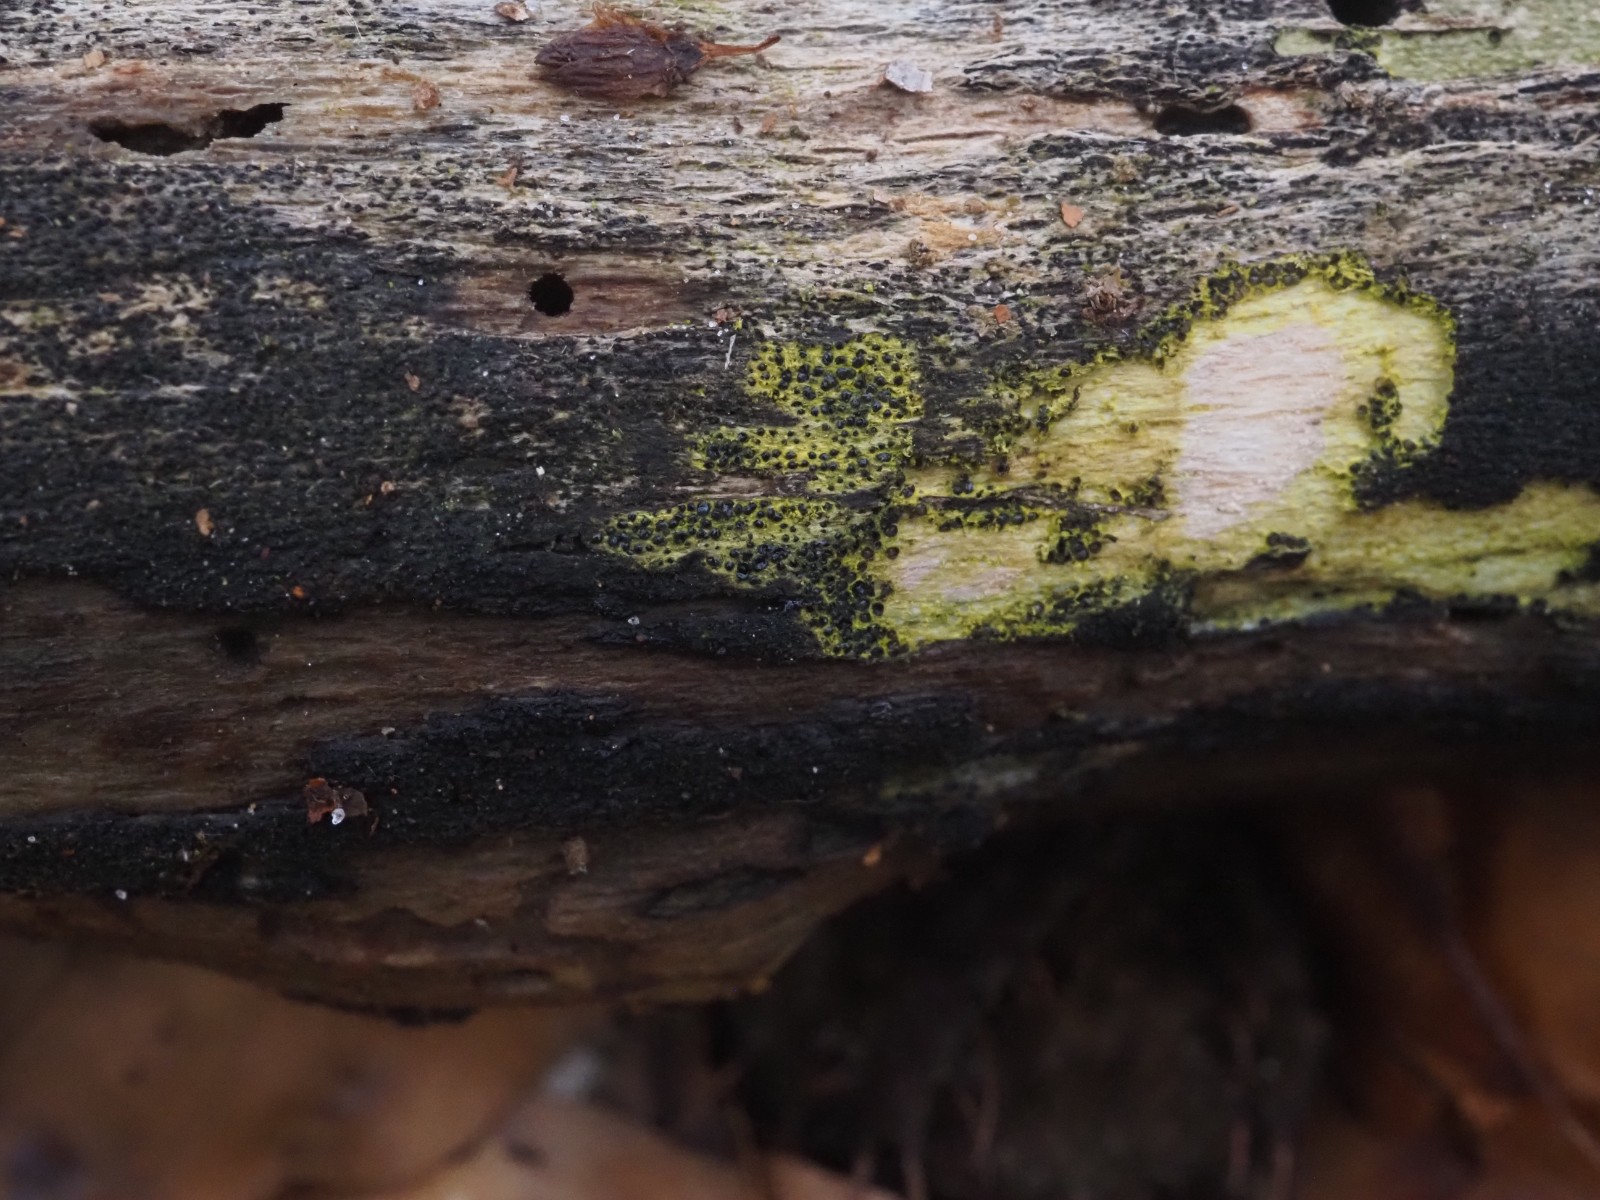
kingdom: Fungi
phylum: Ascomycota
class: Sordariomycetes
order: Xylariales
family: Diatrypaceae
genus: Eutypa
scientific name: Eutypa flavovirens
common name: grønkødet kulskorpe
